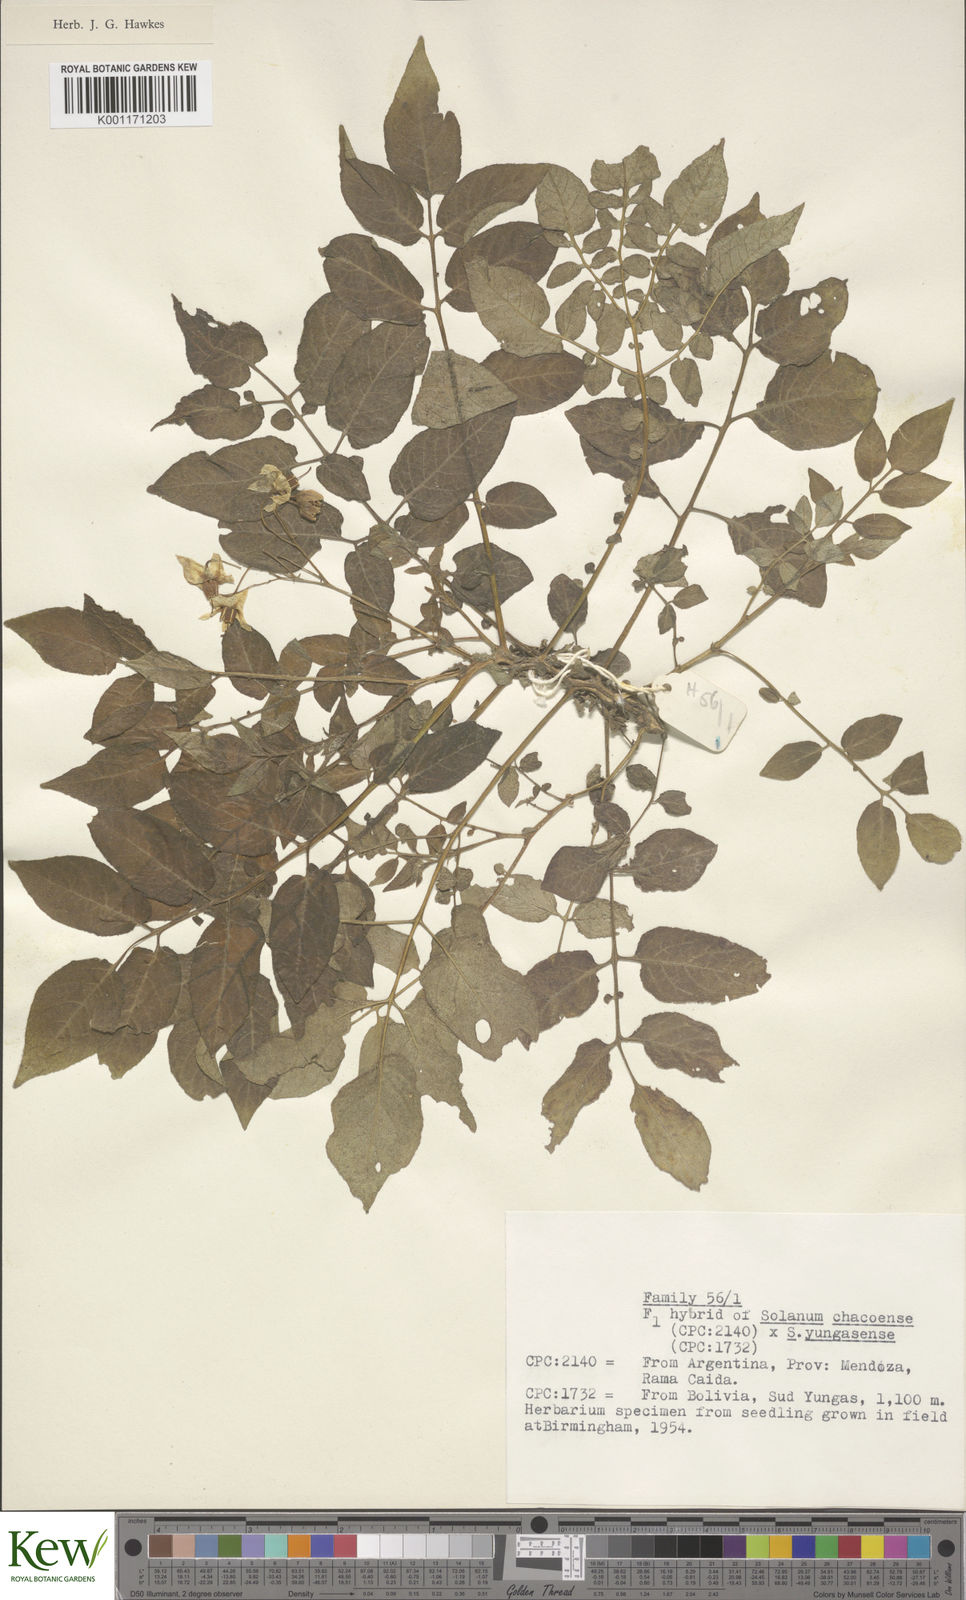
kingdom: Plantae
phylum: Tracheophyta
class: Magnoliopsida
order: Solanales
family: Solanaceae
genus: Solanum
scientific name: Solanum chacoense
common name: Chaco potato
